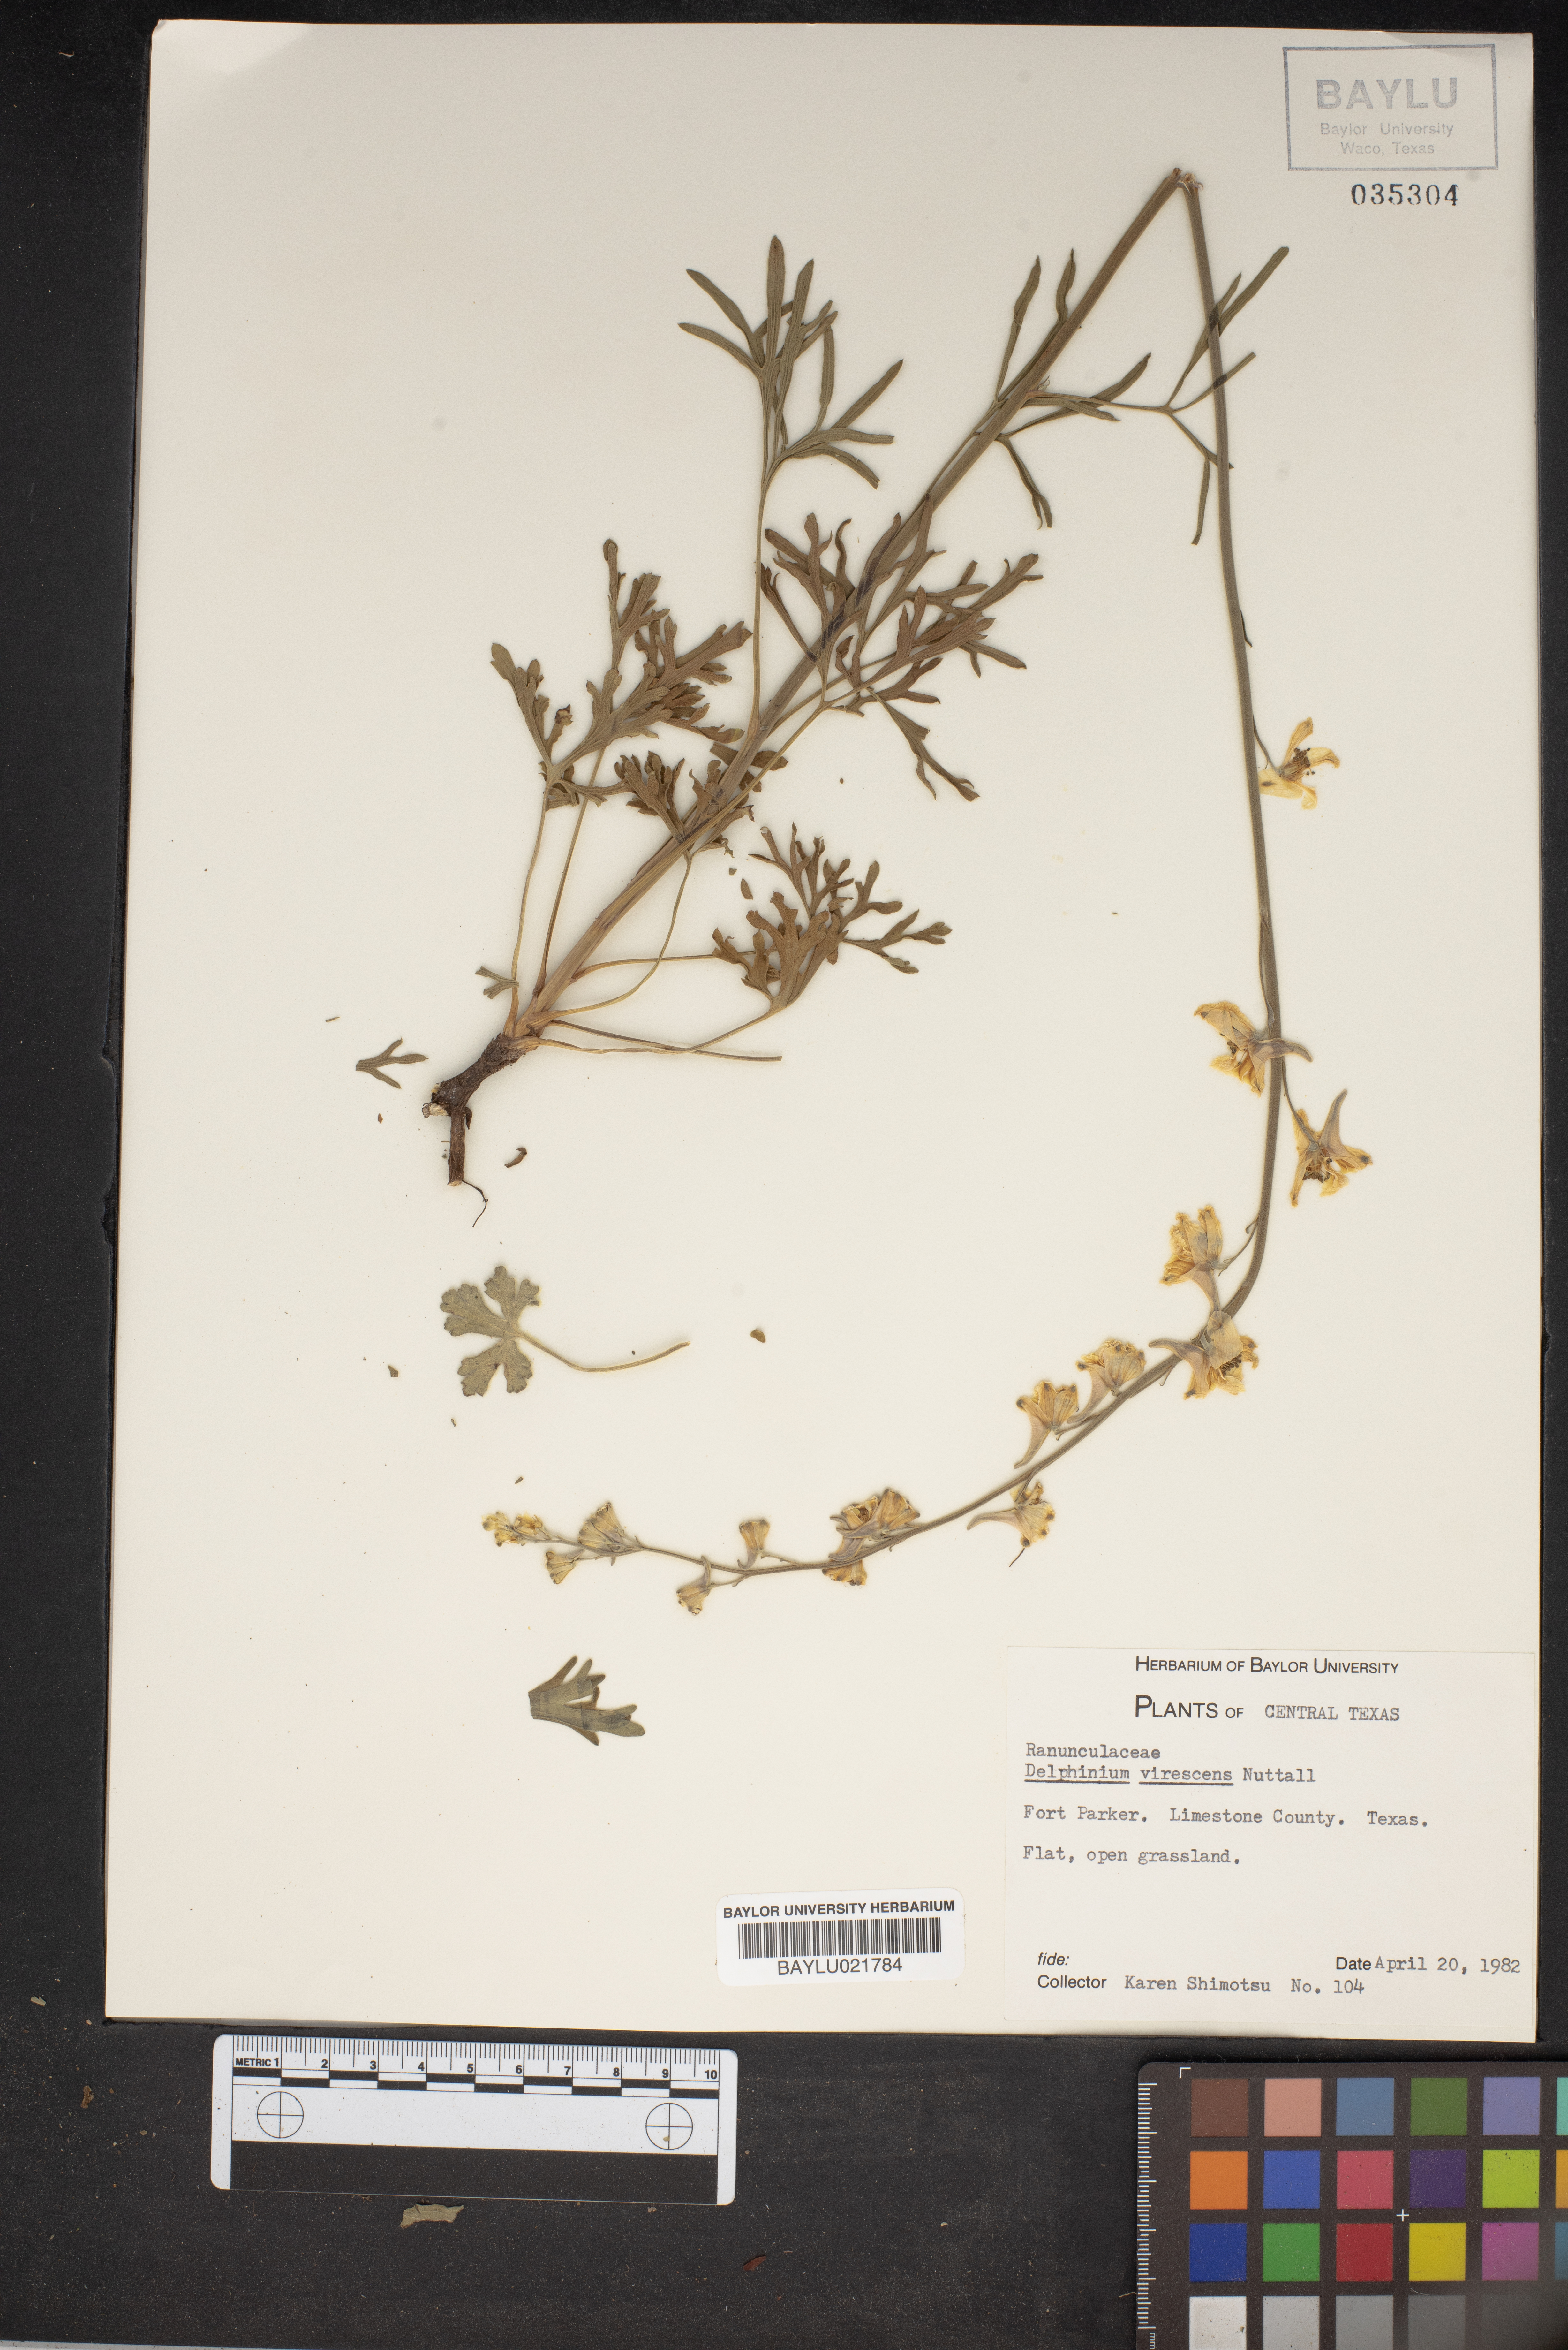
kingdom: Plantae
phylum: Tracheophyta
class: Magnoliopsida
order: Ranunculales
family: Ranunculaceae
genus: Delphinium
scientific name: Delphinium carolinianum
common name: Carolina larkspur
